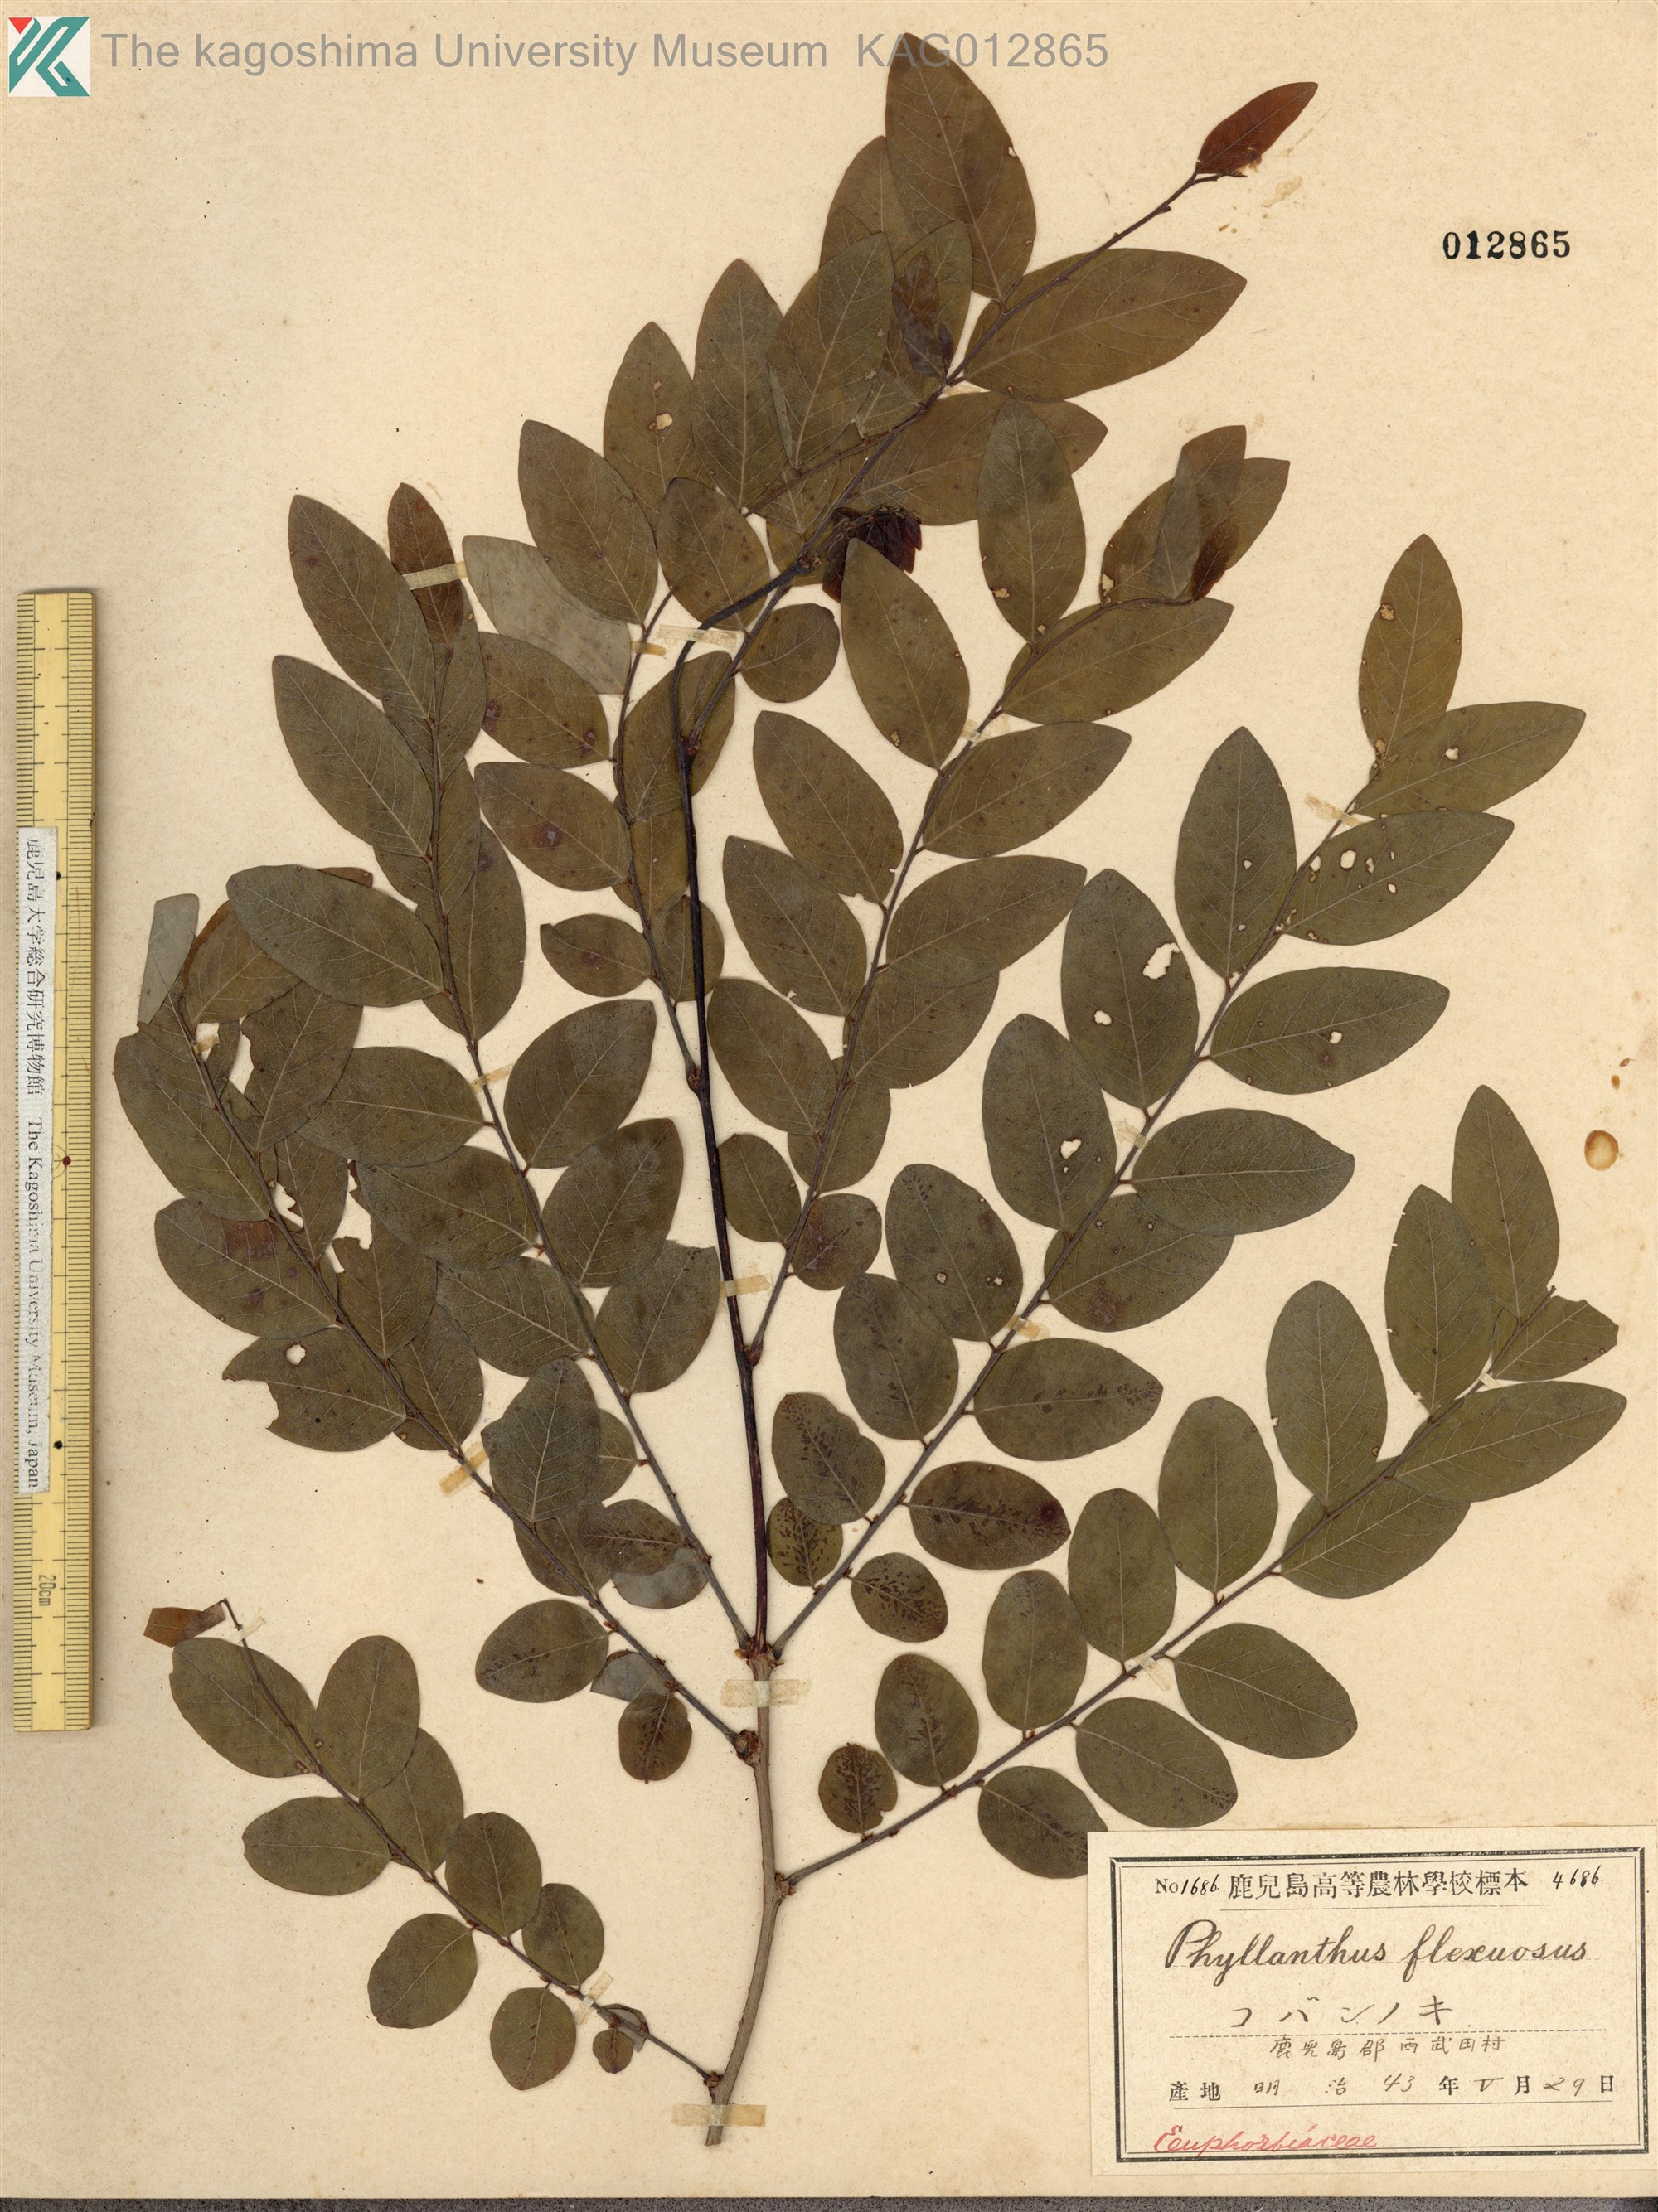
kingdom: Plantae
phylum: Tracheophyta
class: Magnoliopsida
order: Malpighiales
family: Phyllanthaceae
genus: Phyllanthus
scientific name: Phyllanthus flexuosus
